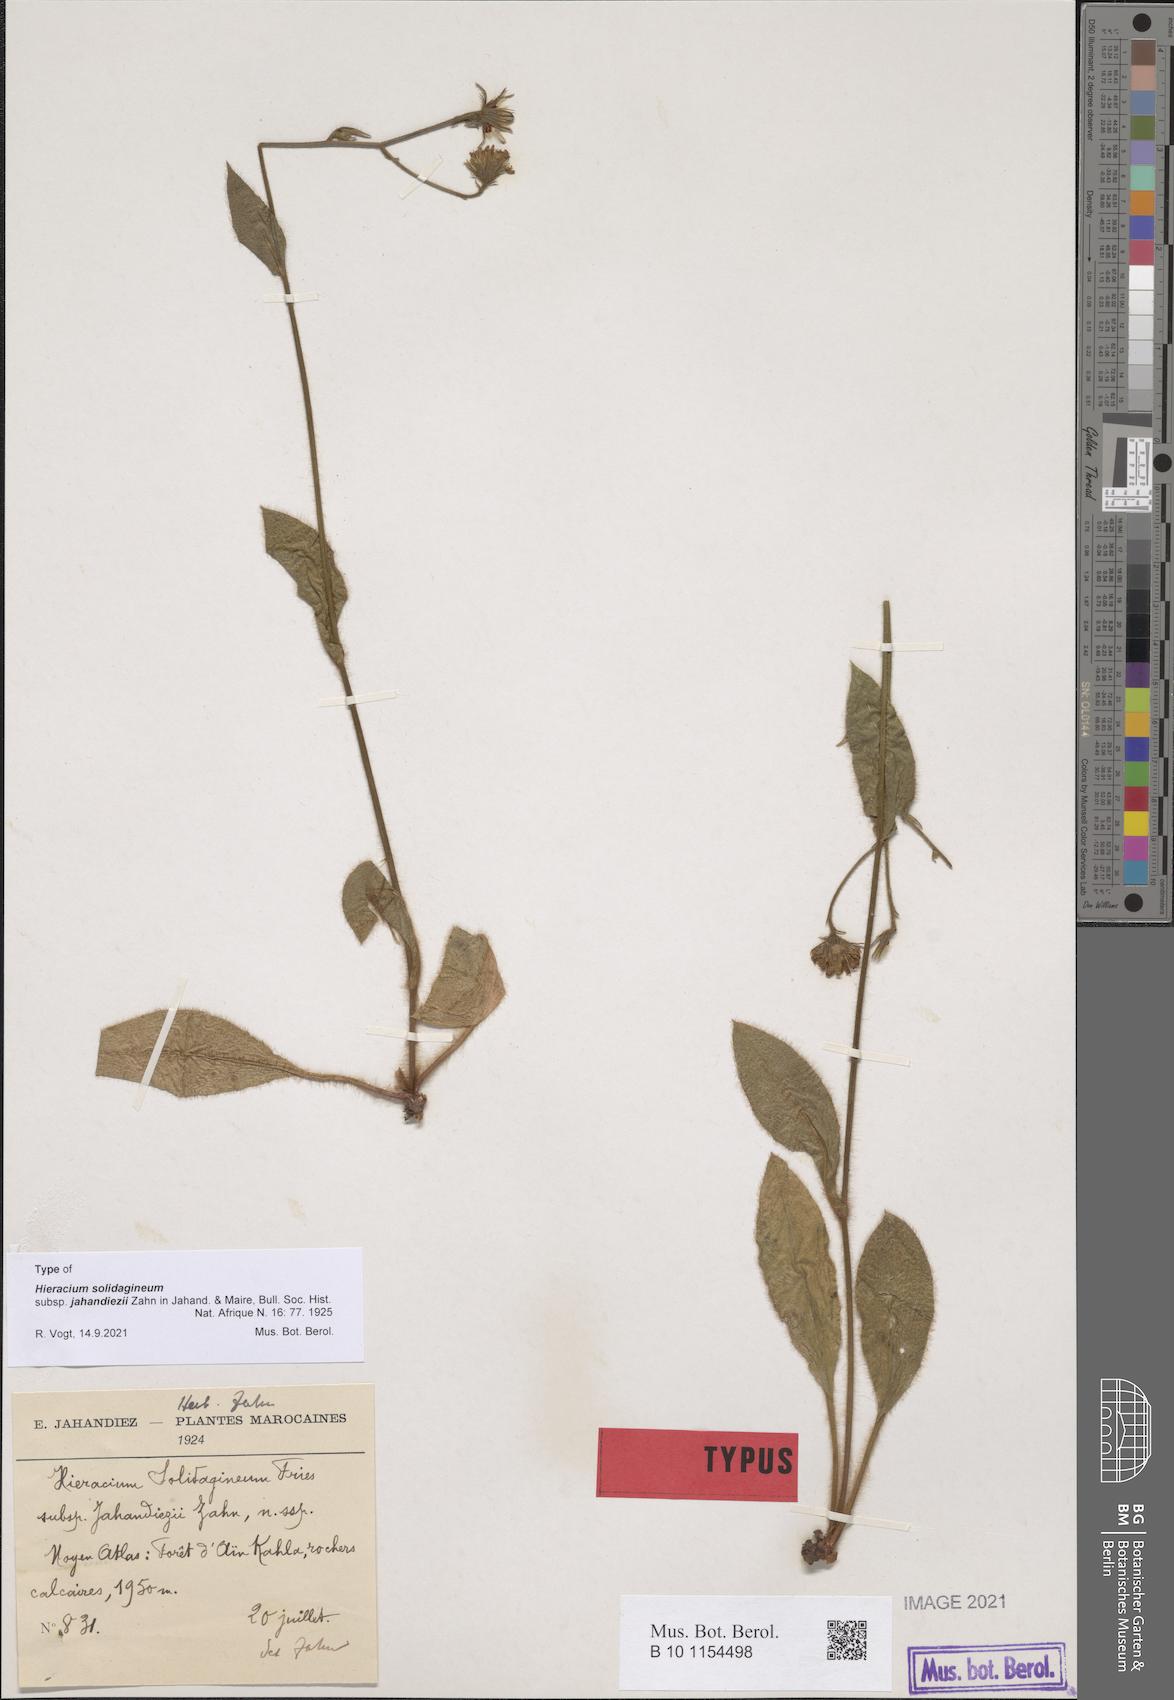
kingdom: Plantae
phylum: Tracheophyta
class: Magnoliopsida
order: Asterales
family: Asteraceae
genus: Hieracium
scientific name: Hieracium solidagineum
